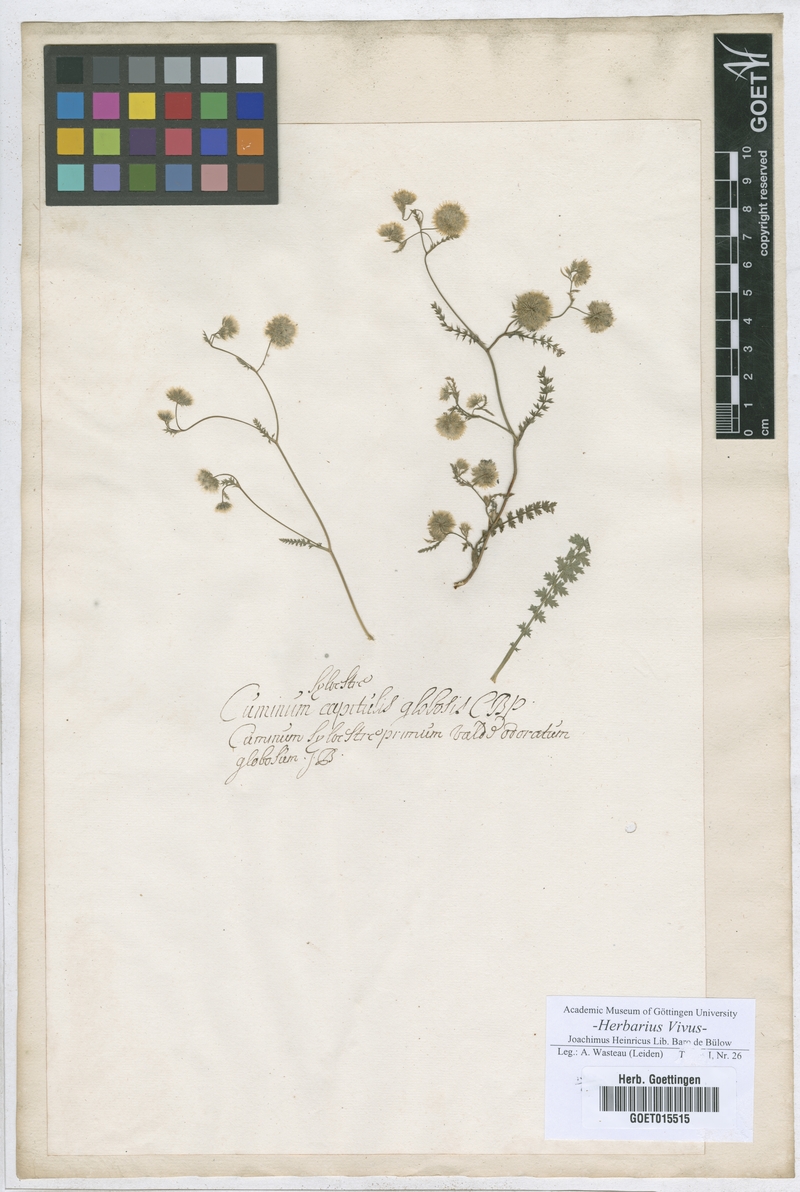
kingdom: Plantae
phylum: Tracheophyta
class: Magnoliopsida
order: Apiales
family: Apiaceae
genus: Cuminum
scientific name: Cuminum
